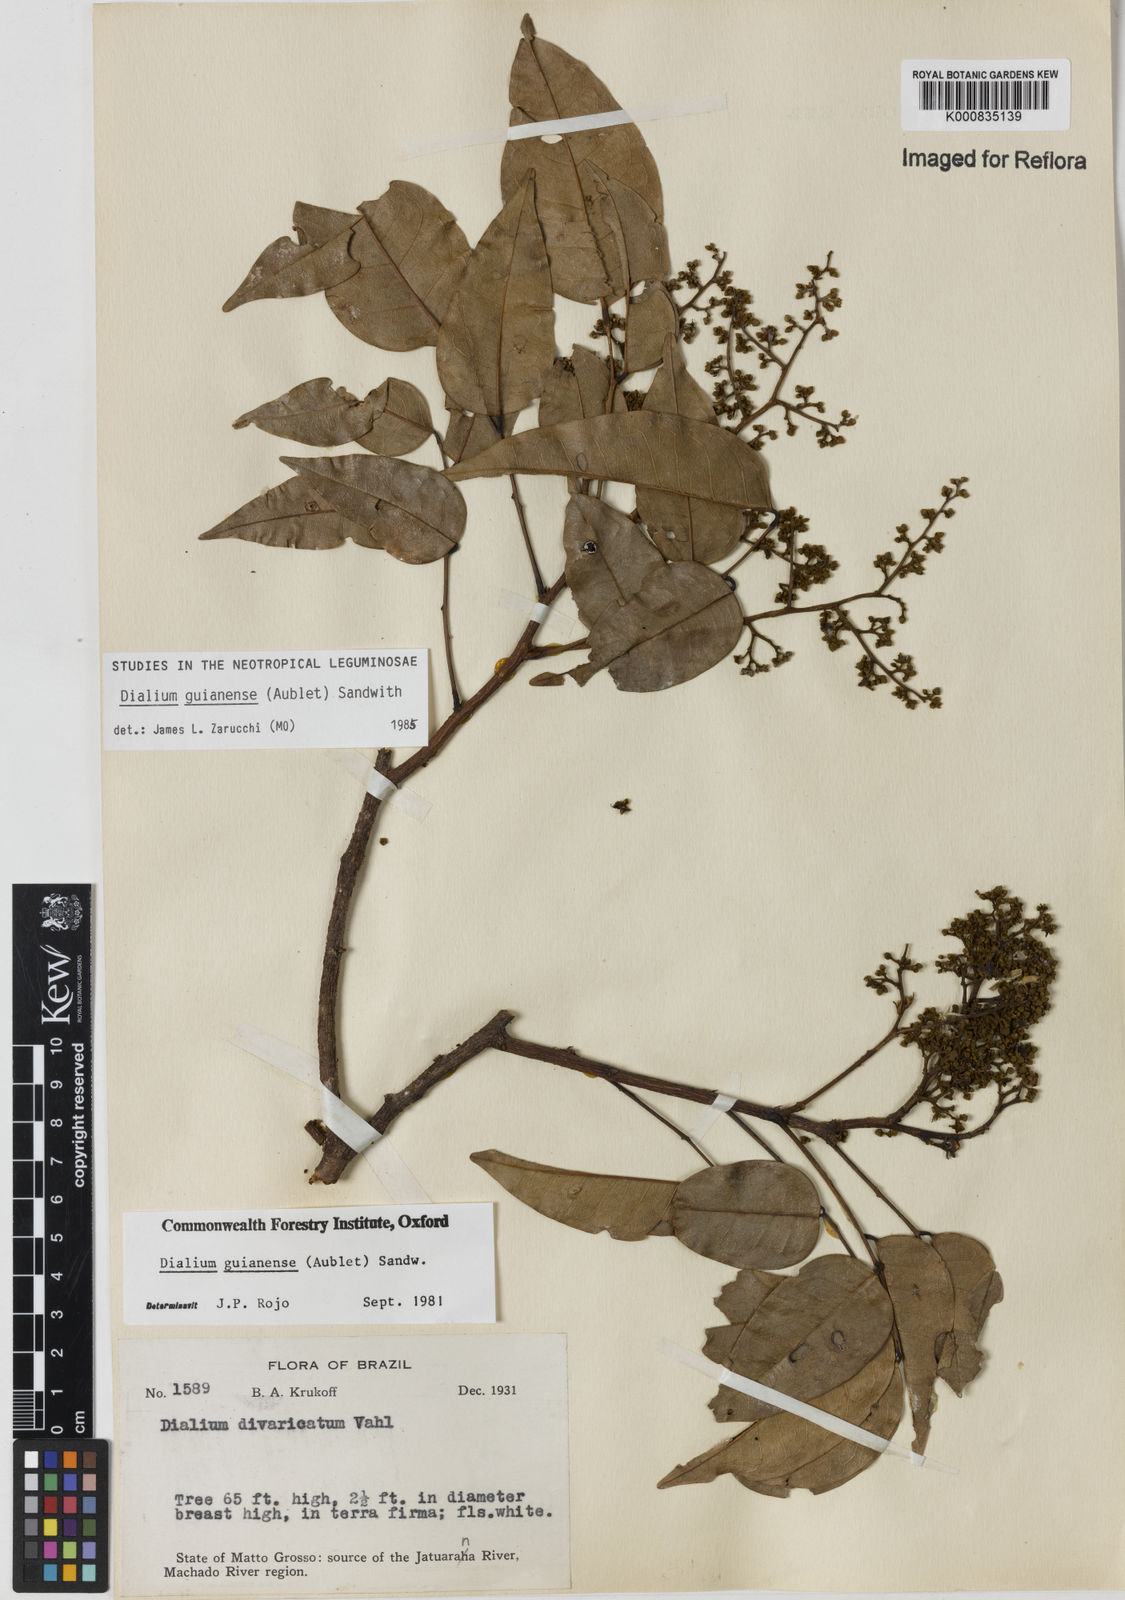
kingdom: Plantae
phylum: Tracheophyta
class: Magnoliopsida
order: Fabales
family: Fabaceae
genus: Dialium
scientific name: Dialium guianense
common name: Ironwood
